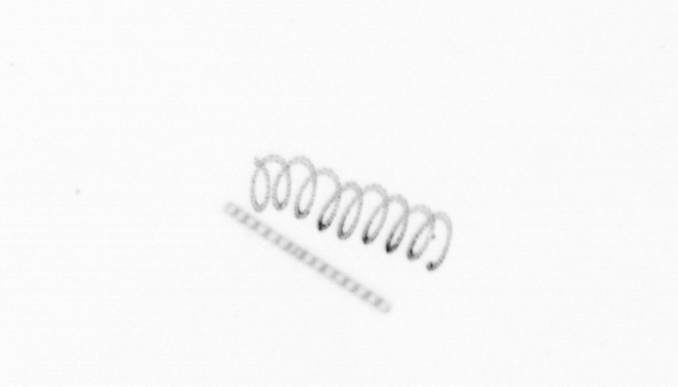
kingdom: Chromista
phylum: Ochrophyta
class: Bacillariophyceae
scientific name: Bacillariophyceae
